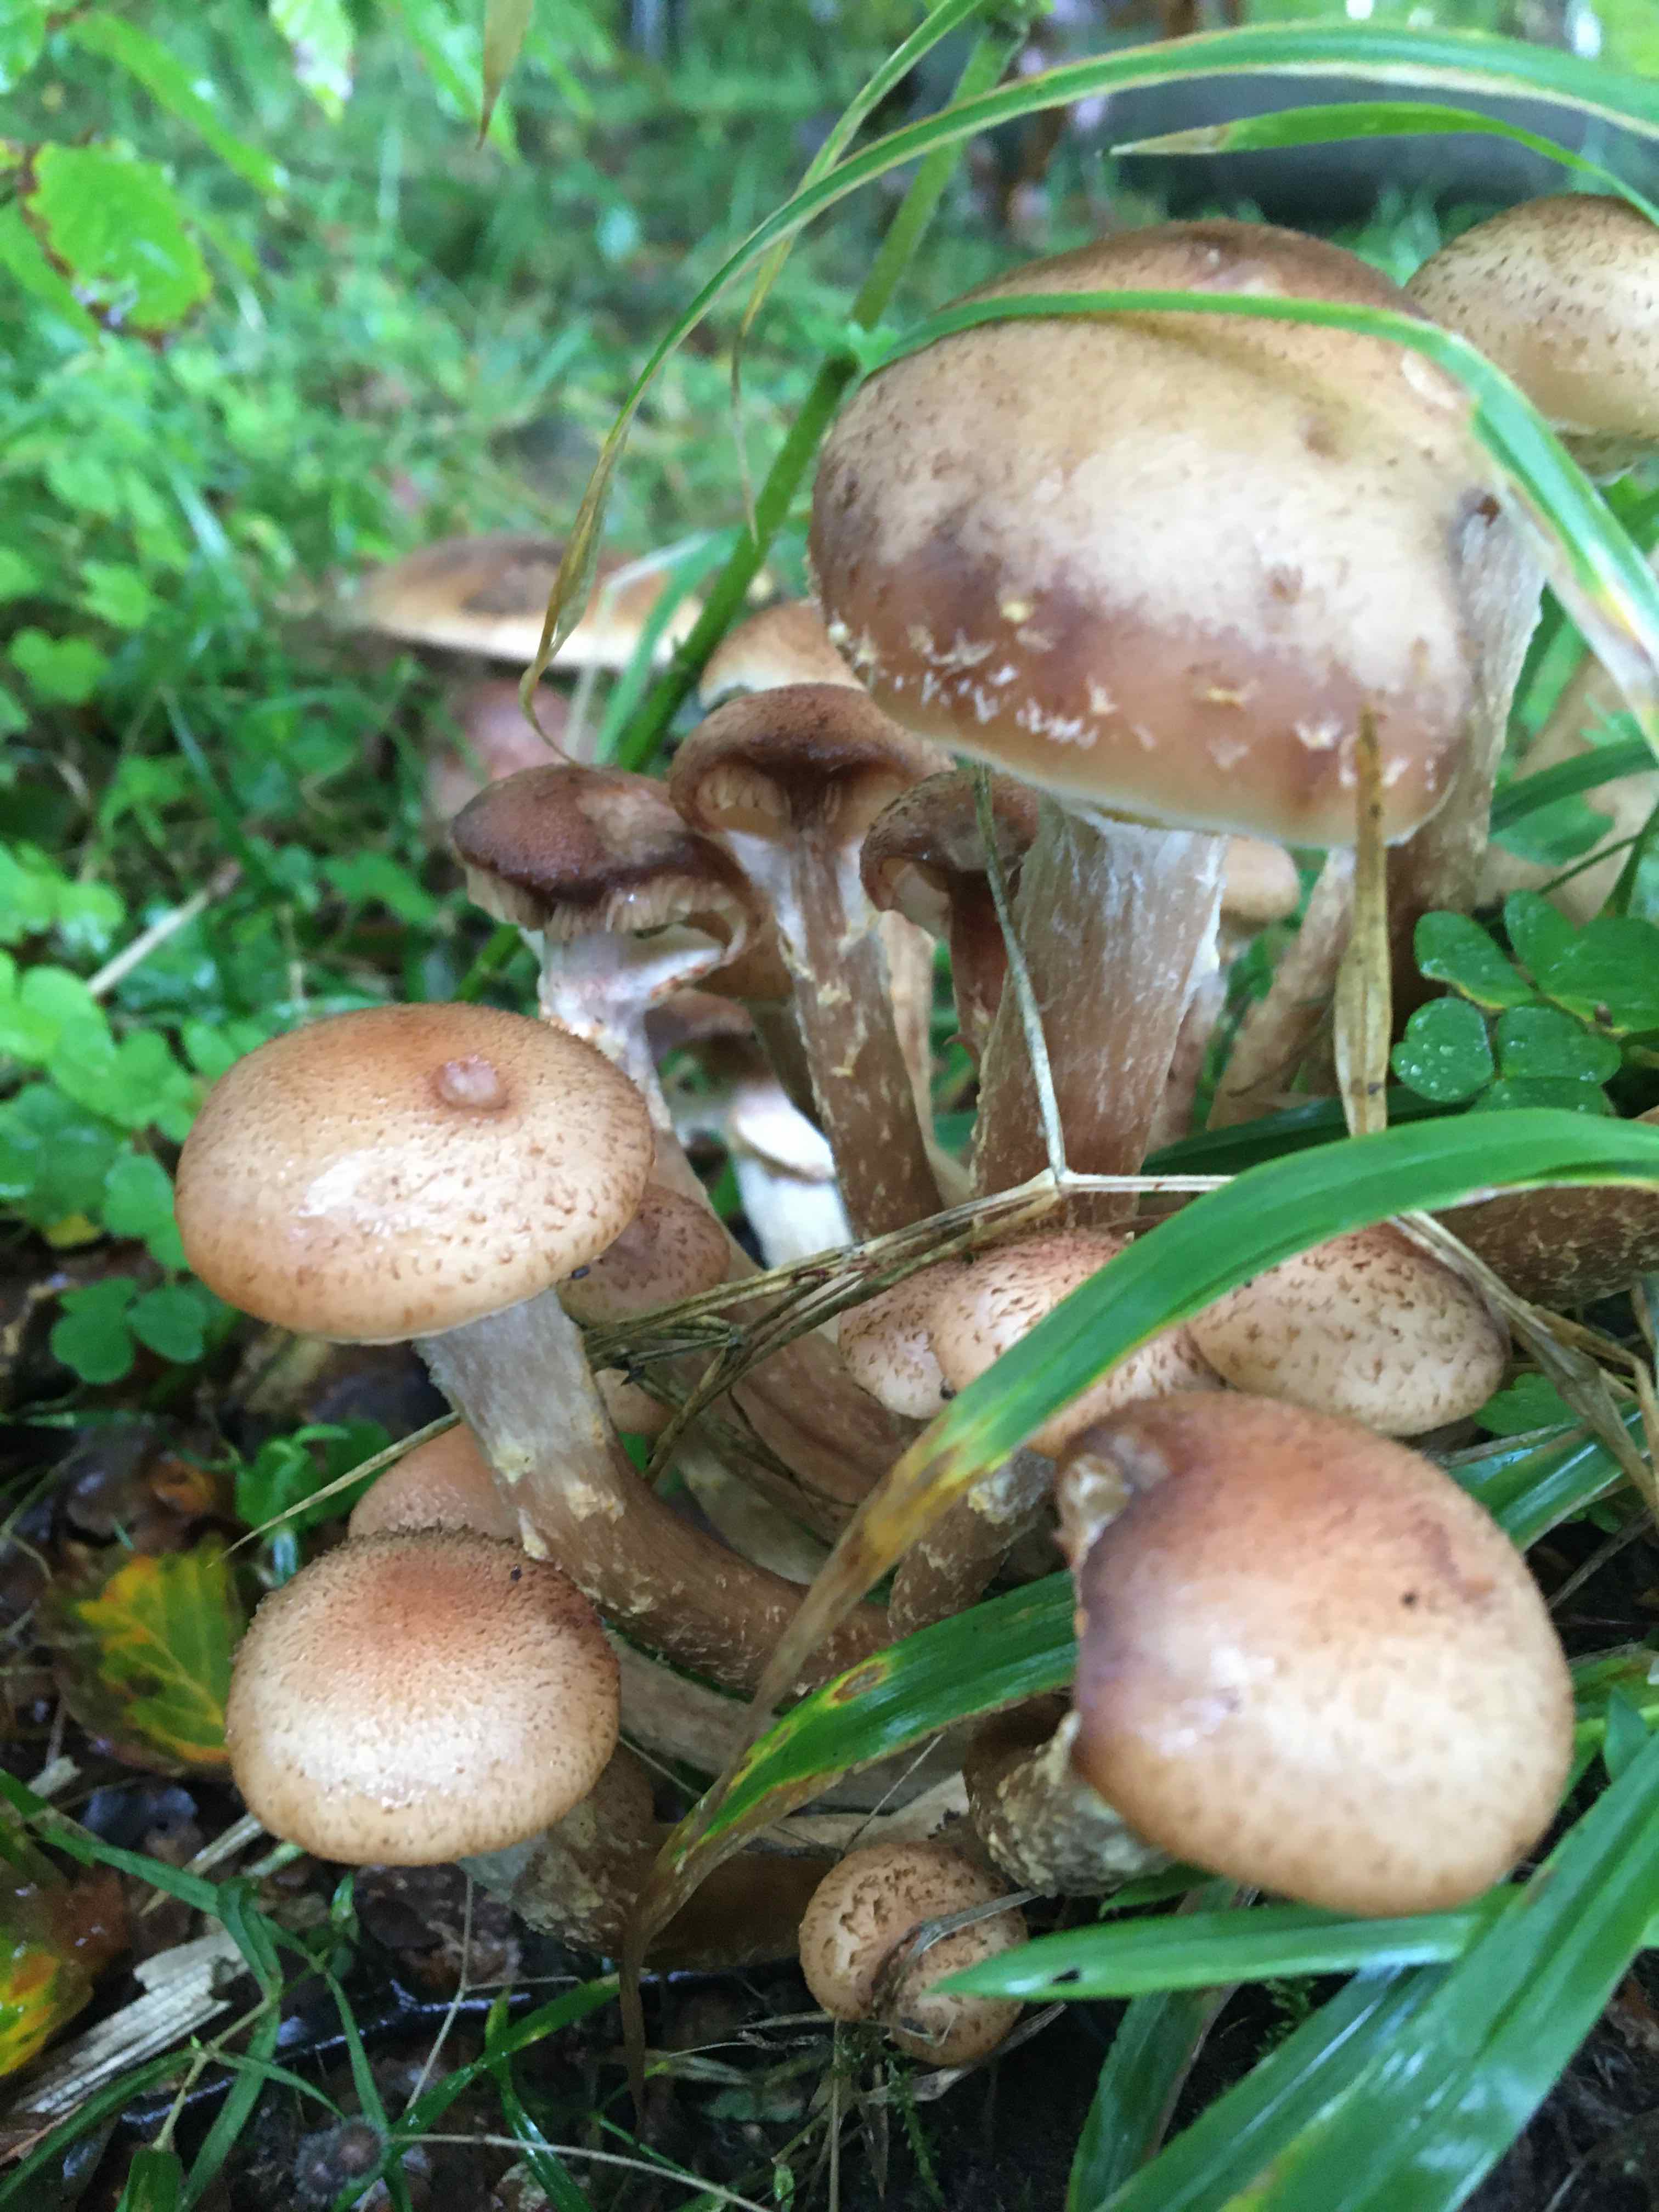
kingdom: Fungi
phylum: Basidiomycota
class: Agaricomycetes
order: Agaricales
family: Physalacriaceae
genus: Armillaria
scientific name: Armillaria lutea
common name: køllestokket honningsvamp
